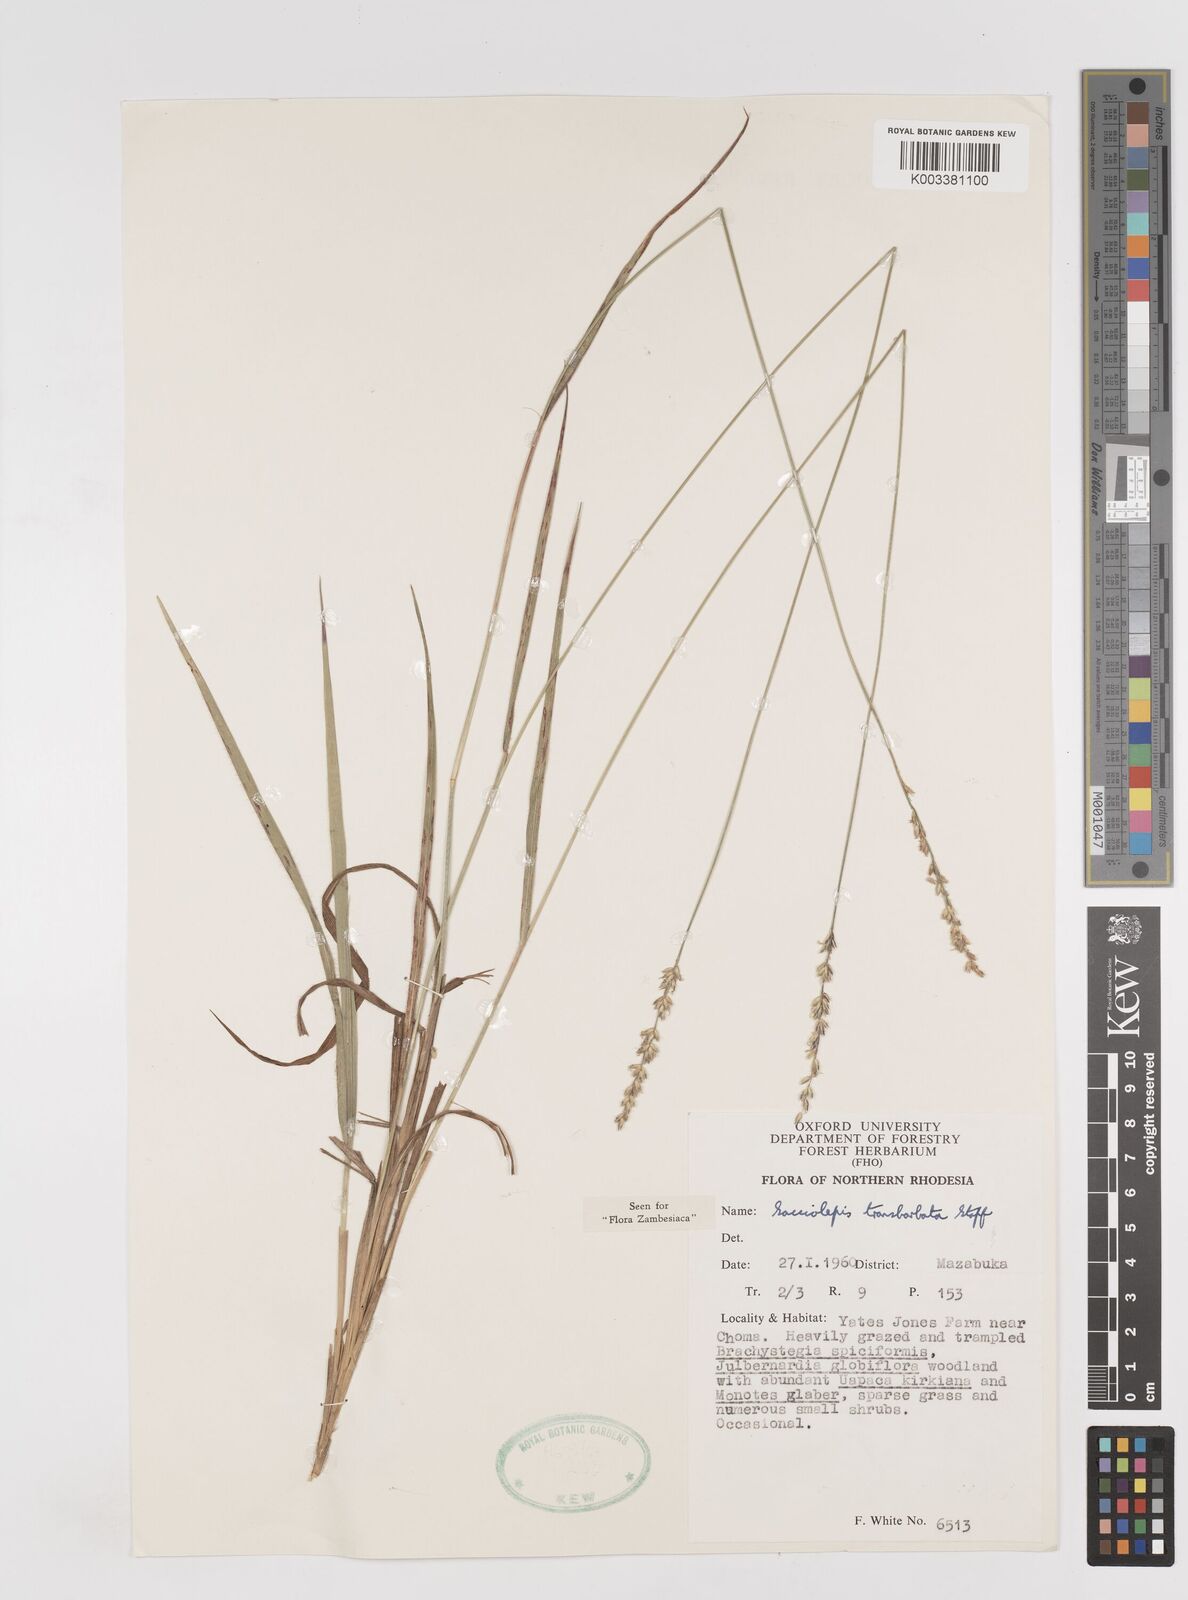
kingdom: Plantae
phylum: Tracheophyta
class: Liliopsida
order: Poales
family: Poaceae
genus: Sacciolepis
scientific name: Sacciolepis transbarbata
